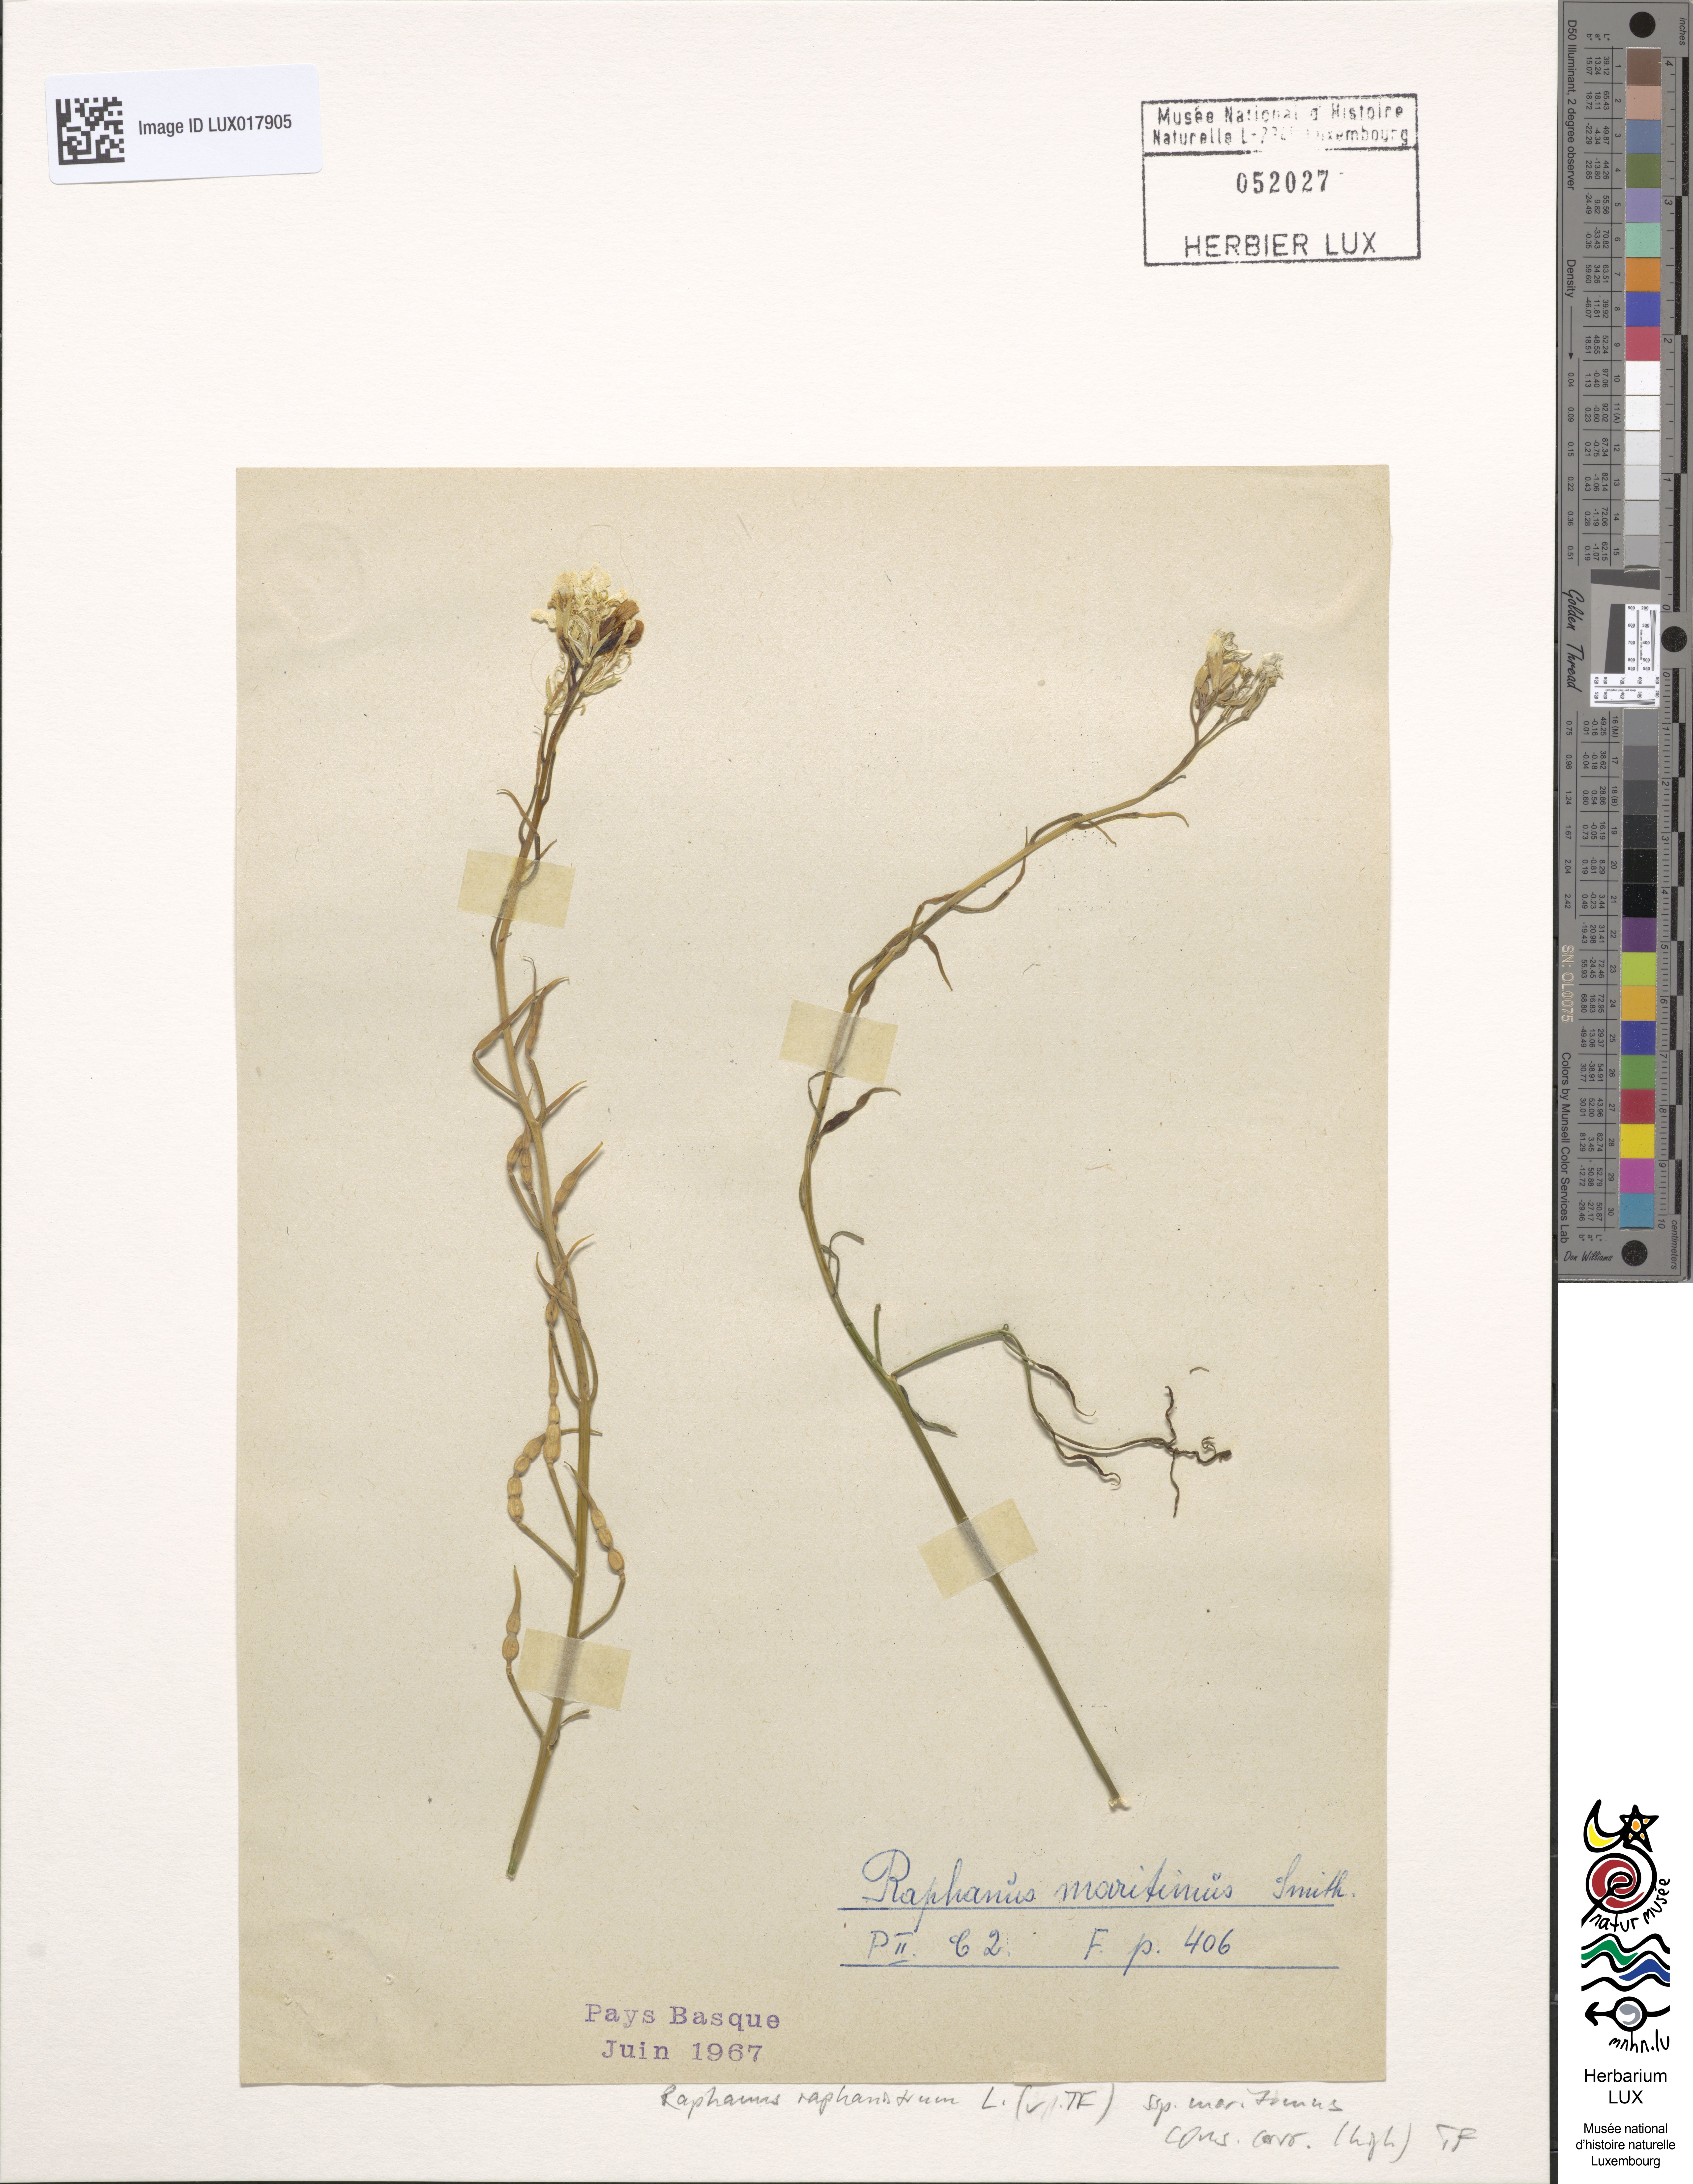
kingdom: Plantae
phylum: Tracheophyta
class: Magnoliopsida
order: Brassicales
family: Brassicaceae
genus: Raphanus
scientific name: Raphanus raphanistrum
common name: Wild radish
